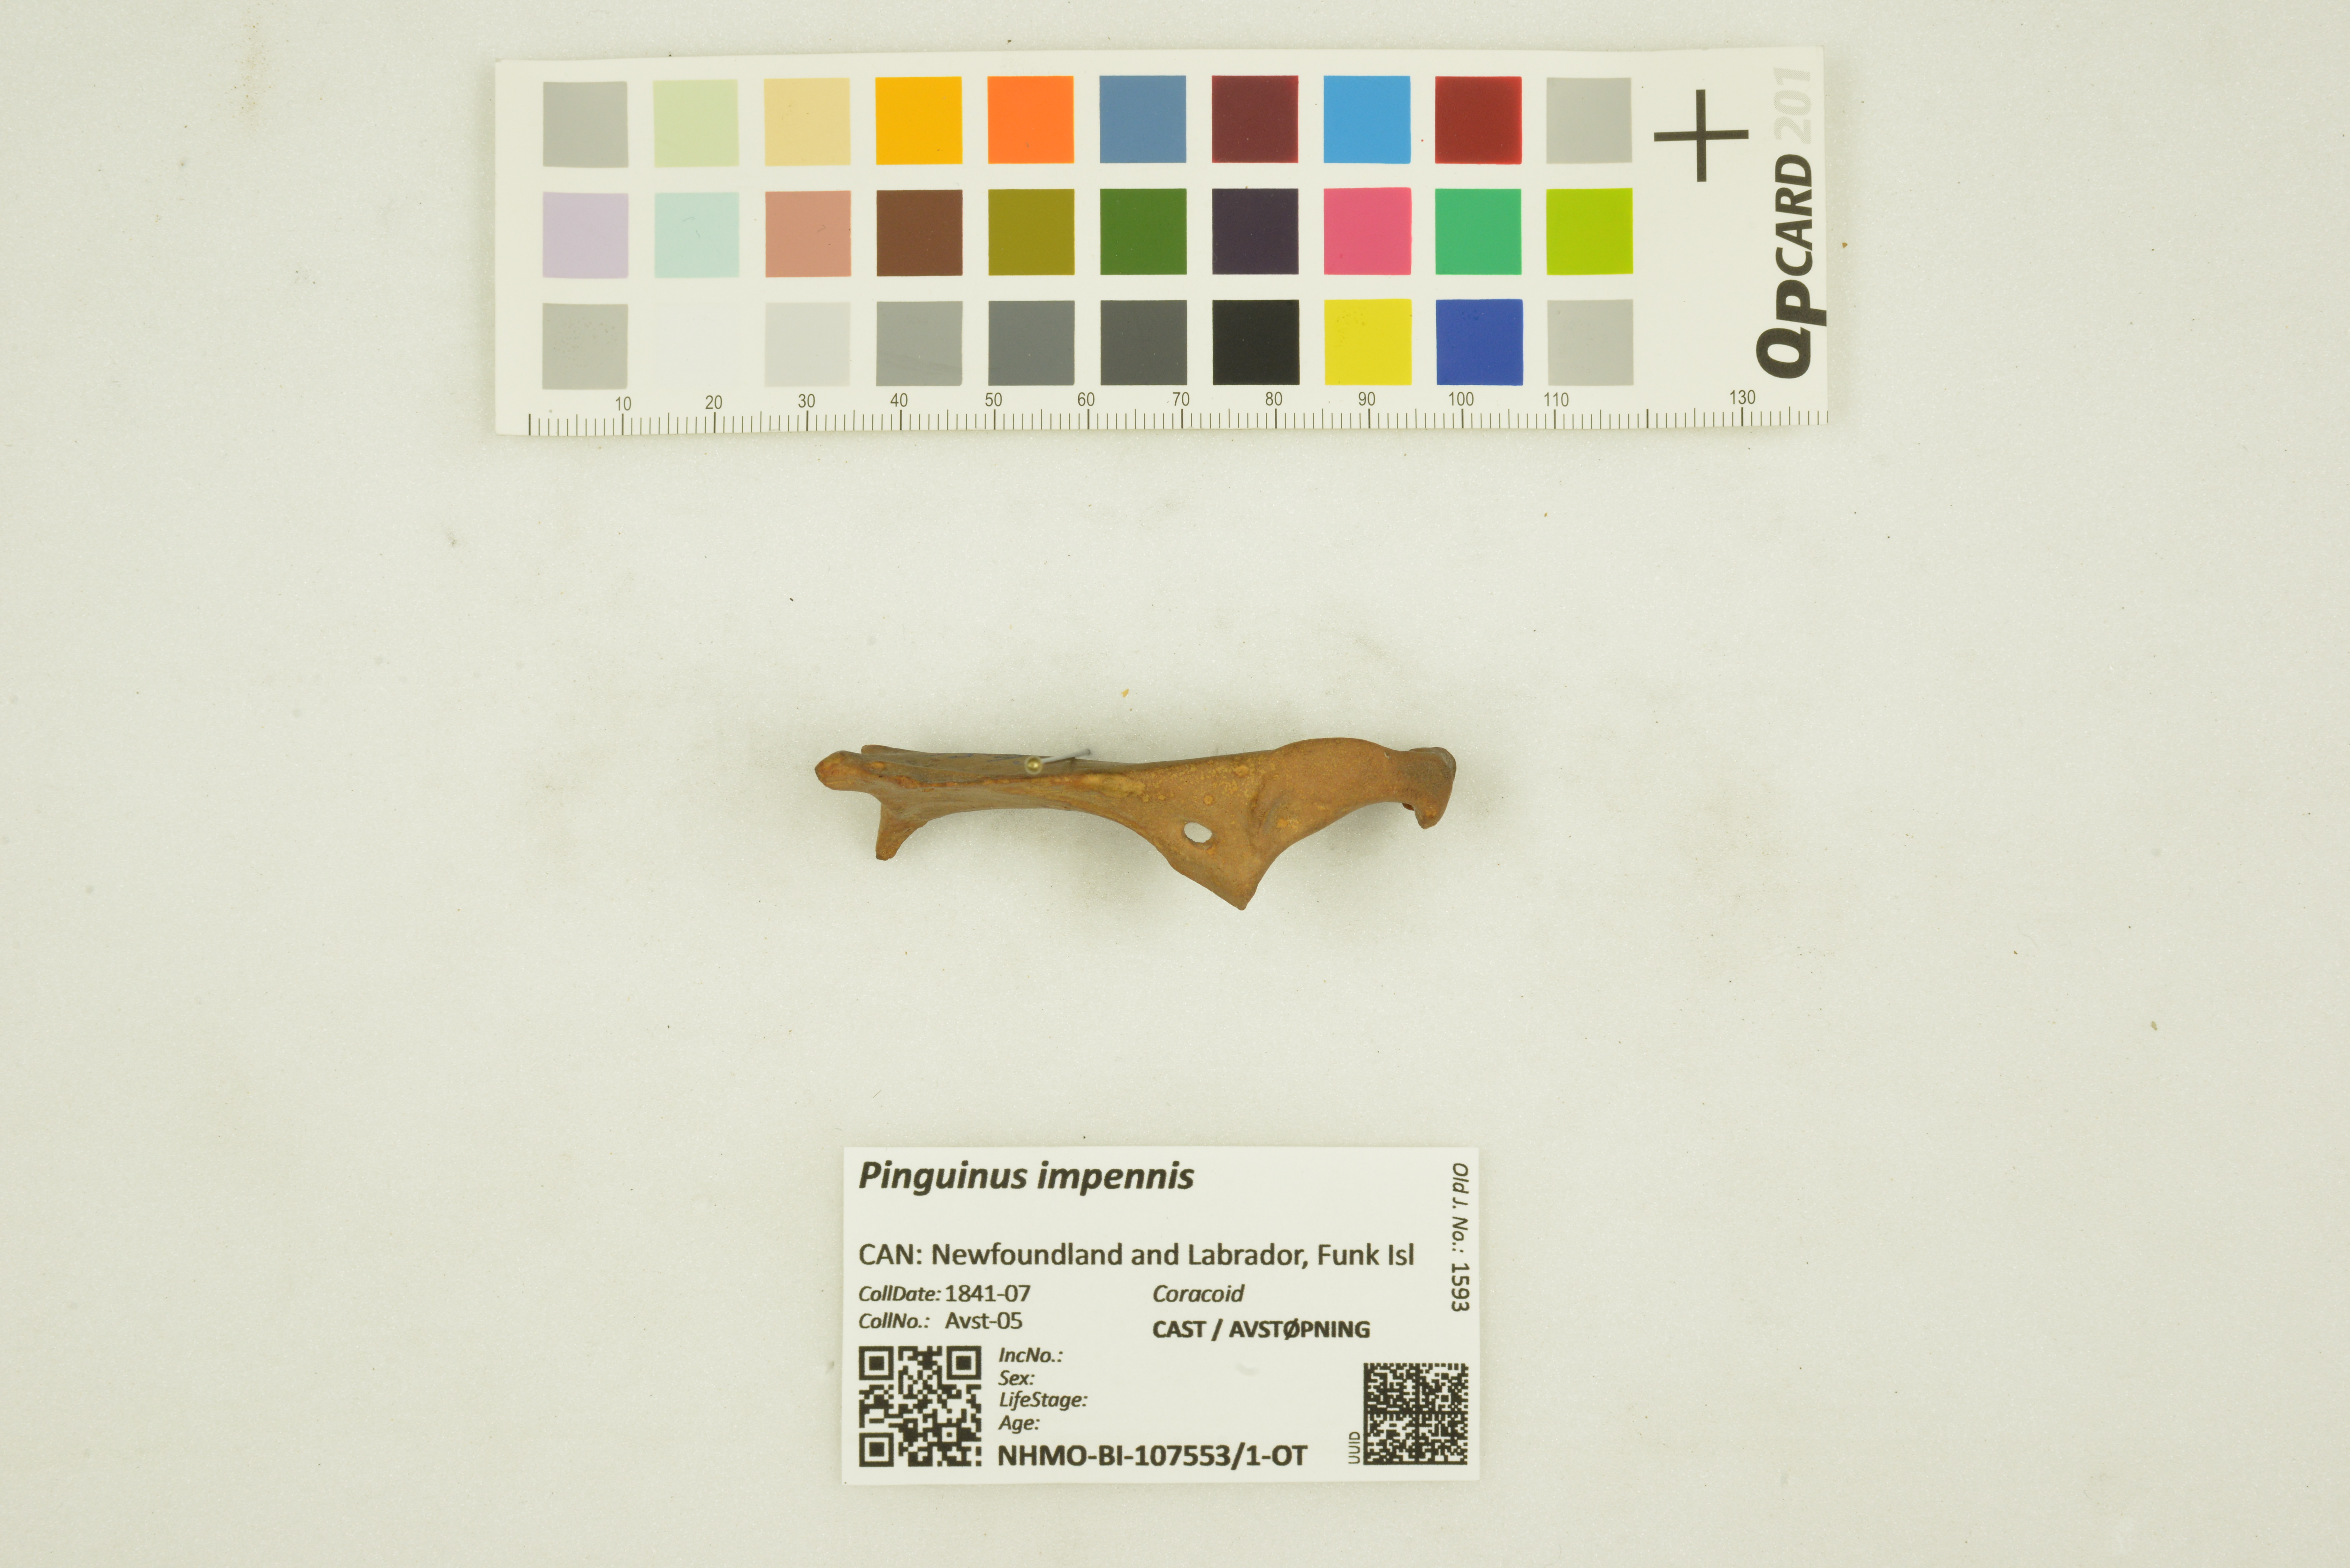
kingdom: Animalia
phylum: Chordata
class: Aves
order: Charadriiformes
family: Alcidae
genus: Pinguinus
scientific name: Pinguinus impennis
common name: Great auk
